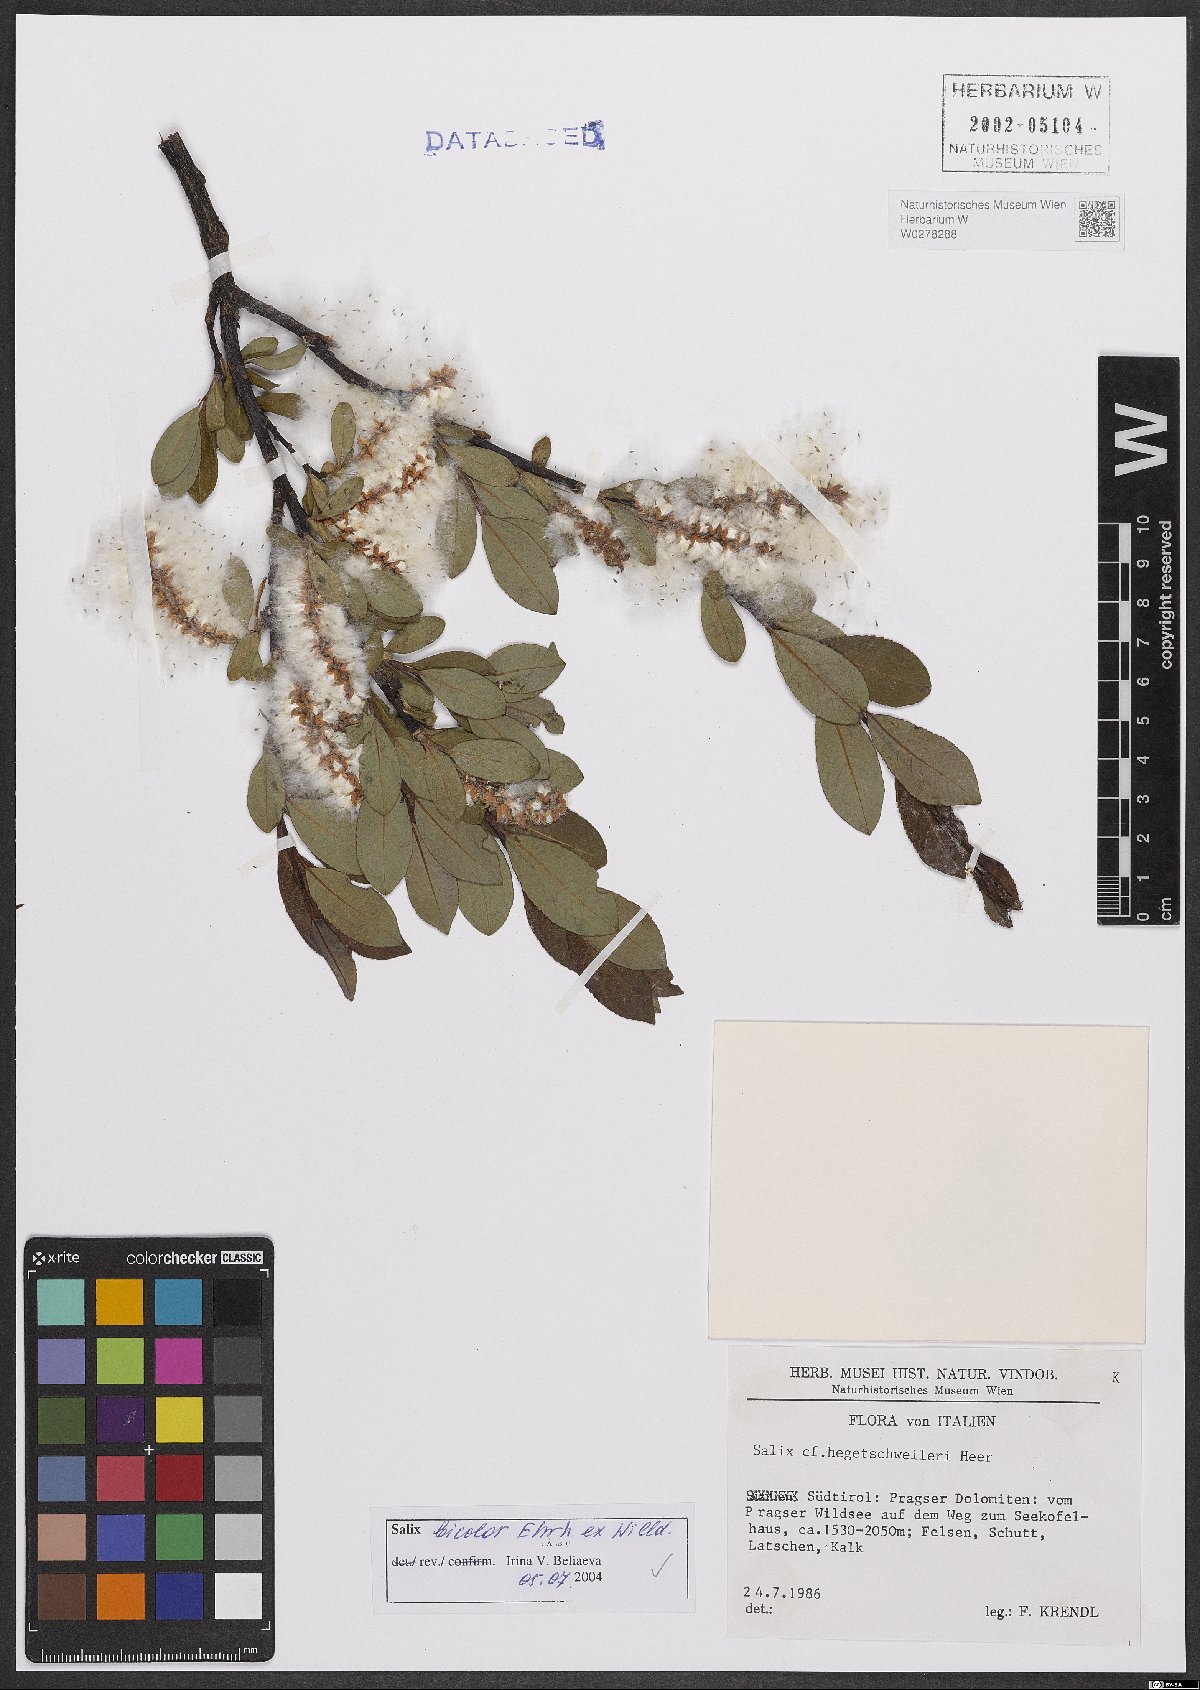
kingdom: Plantae
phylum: Tracheophyta
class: Magnoliopsida
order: Malpighiales
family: Salicaceae
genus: Salix
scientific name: Salix bicolor
